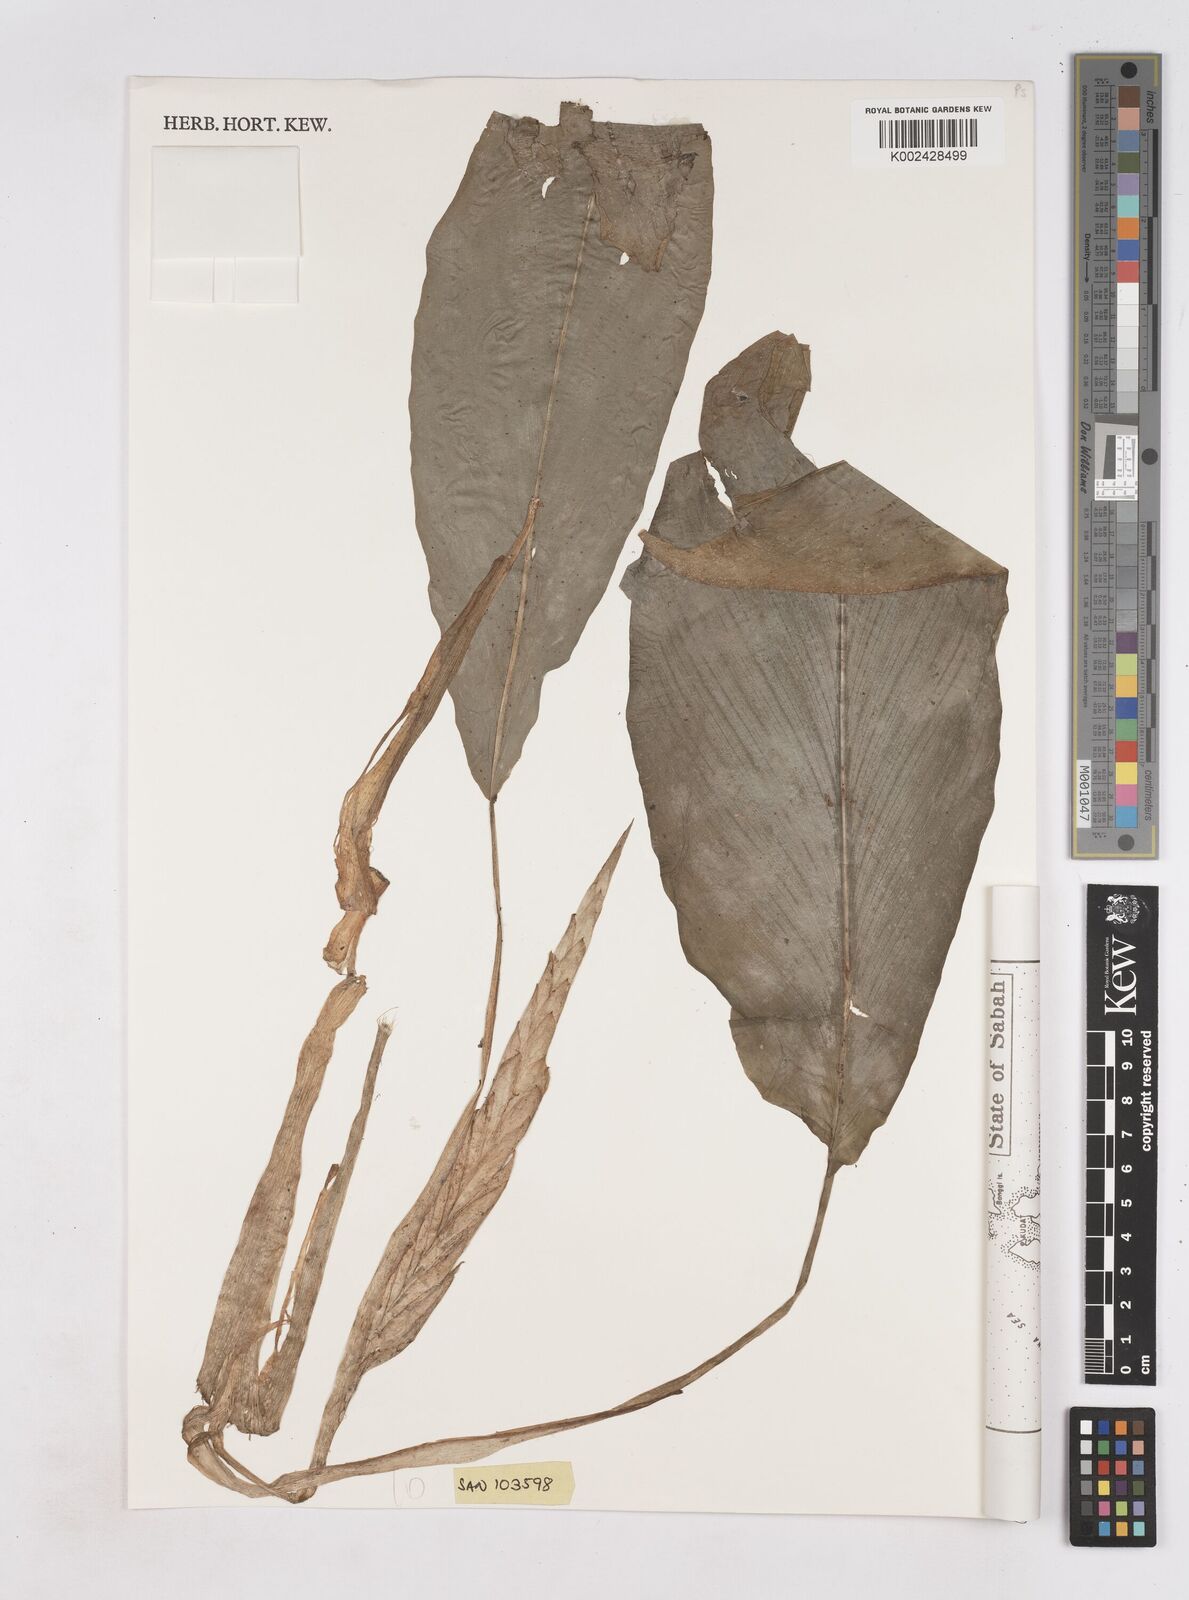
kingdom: Plantae
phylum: Tracheophyta
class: Liliopsida
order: Zingiberales
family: Zingiberaceae
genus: Boesenbergia
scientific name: Boesenbergia
